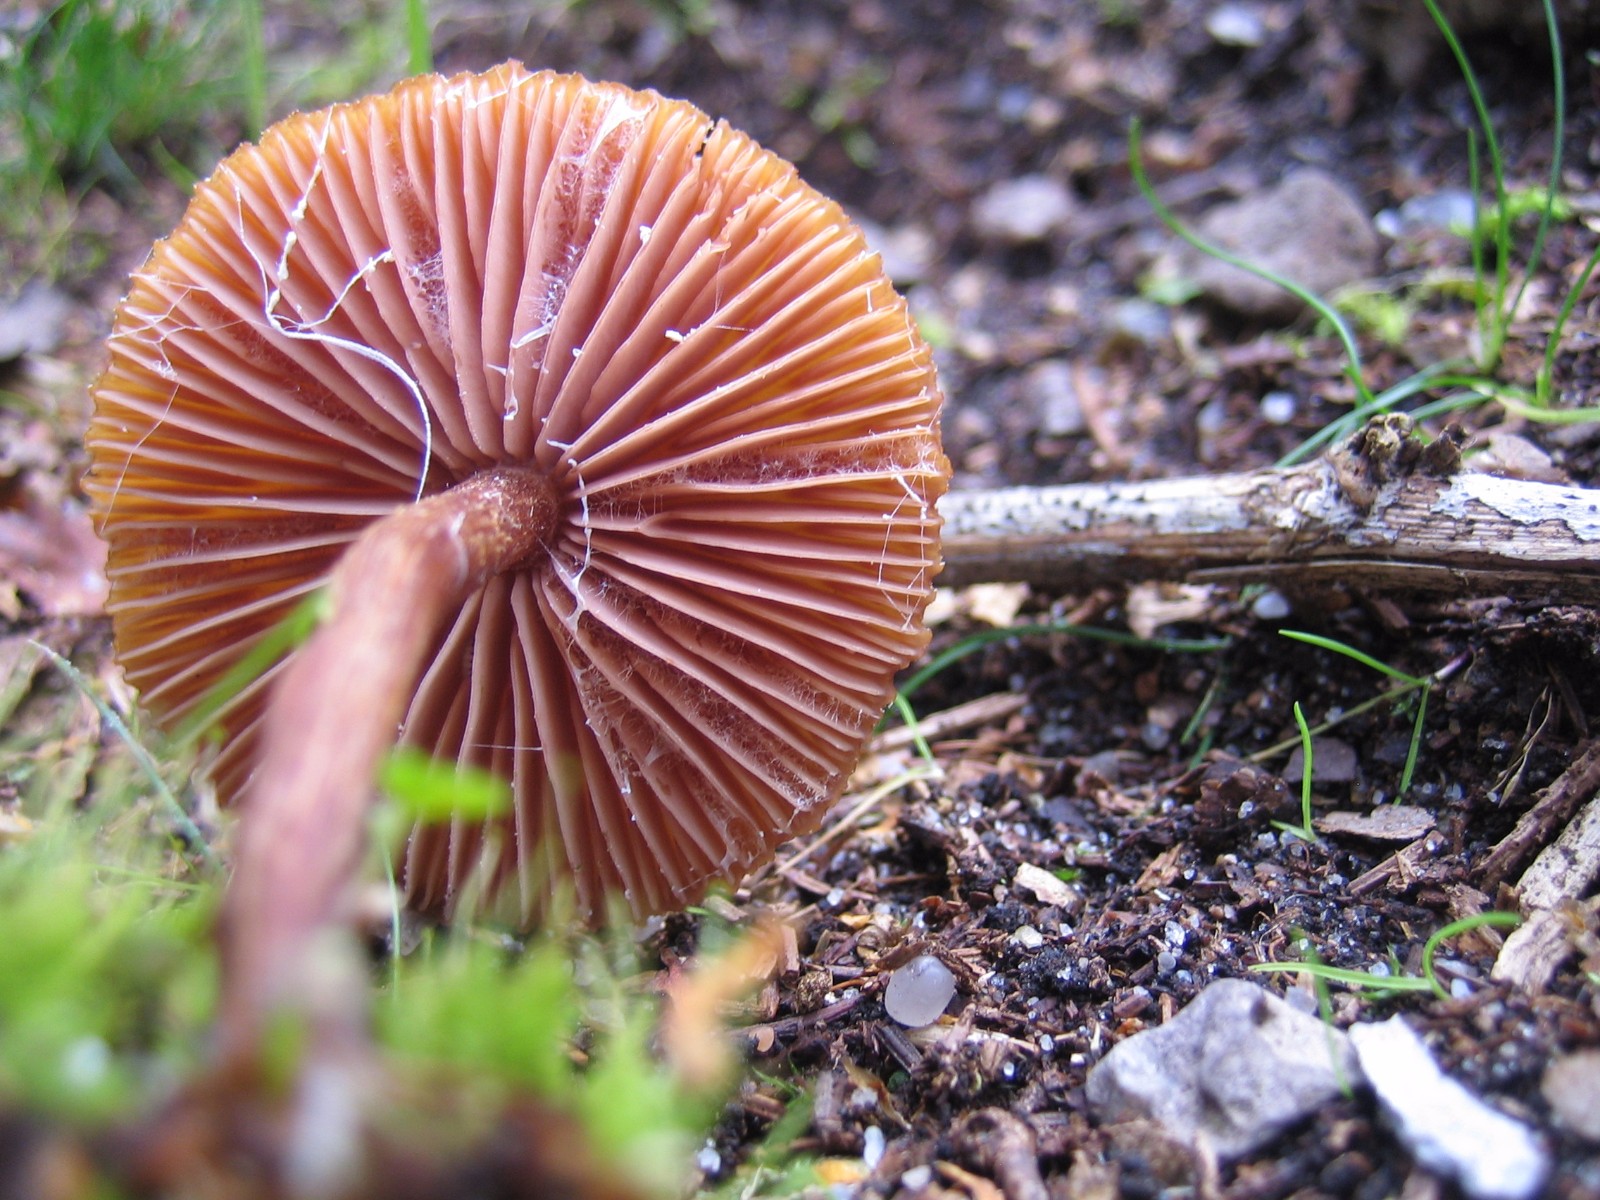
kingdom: Fungi
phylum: Basidiomycota
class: Agaricomycetes
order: Agaricales
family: Hydnangiaceae
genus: Laccaria
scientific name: Laccaria laccata
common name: rød ametysthat
